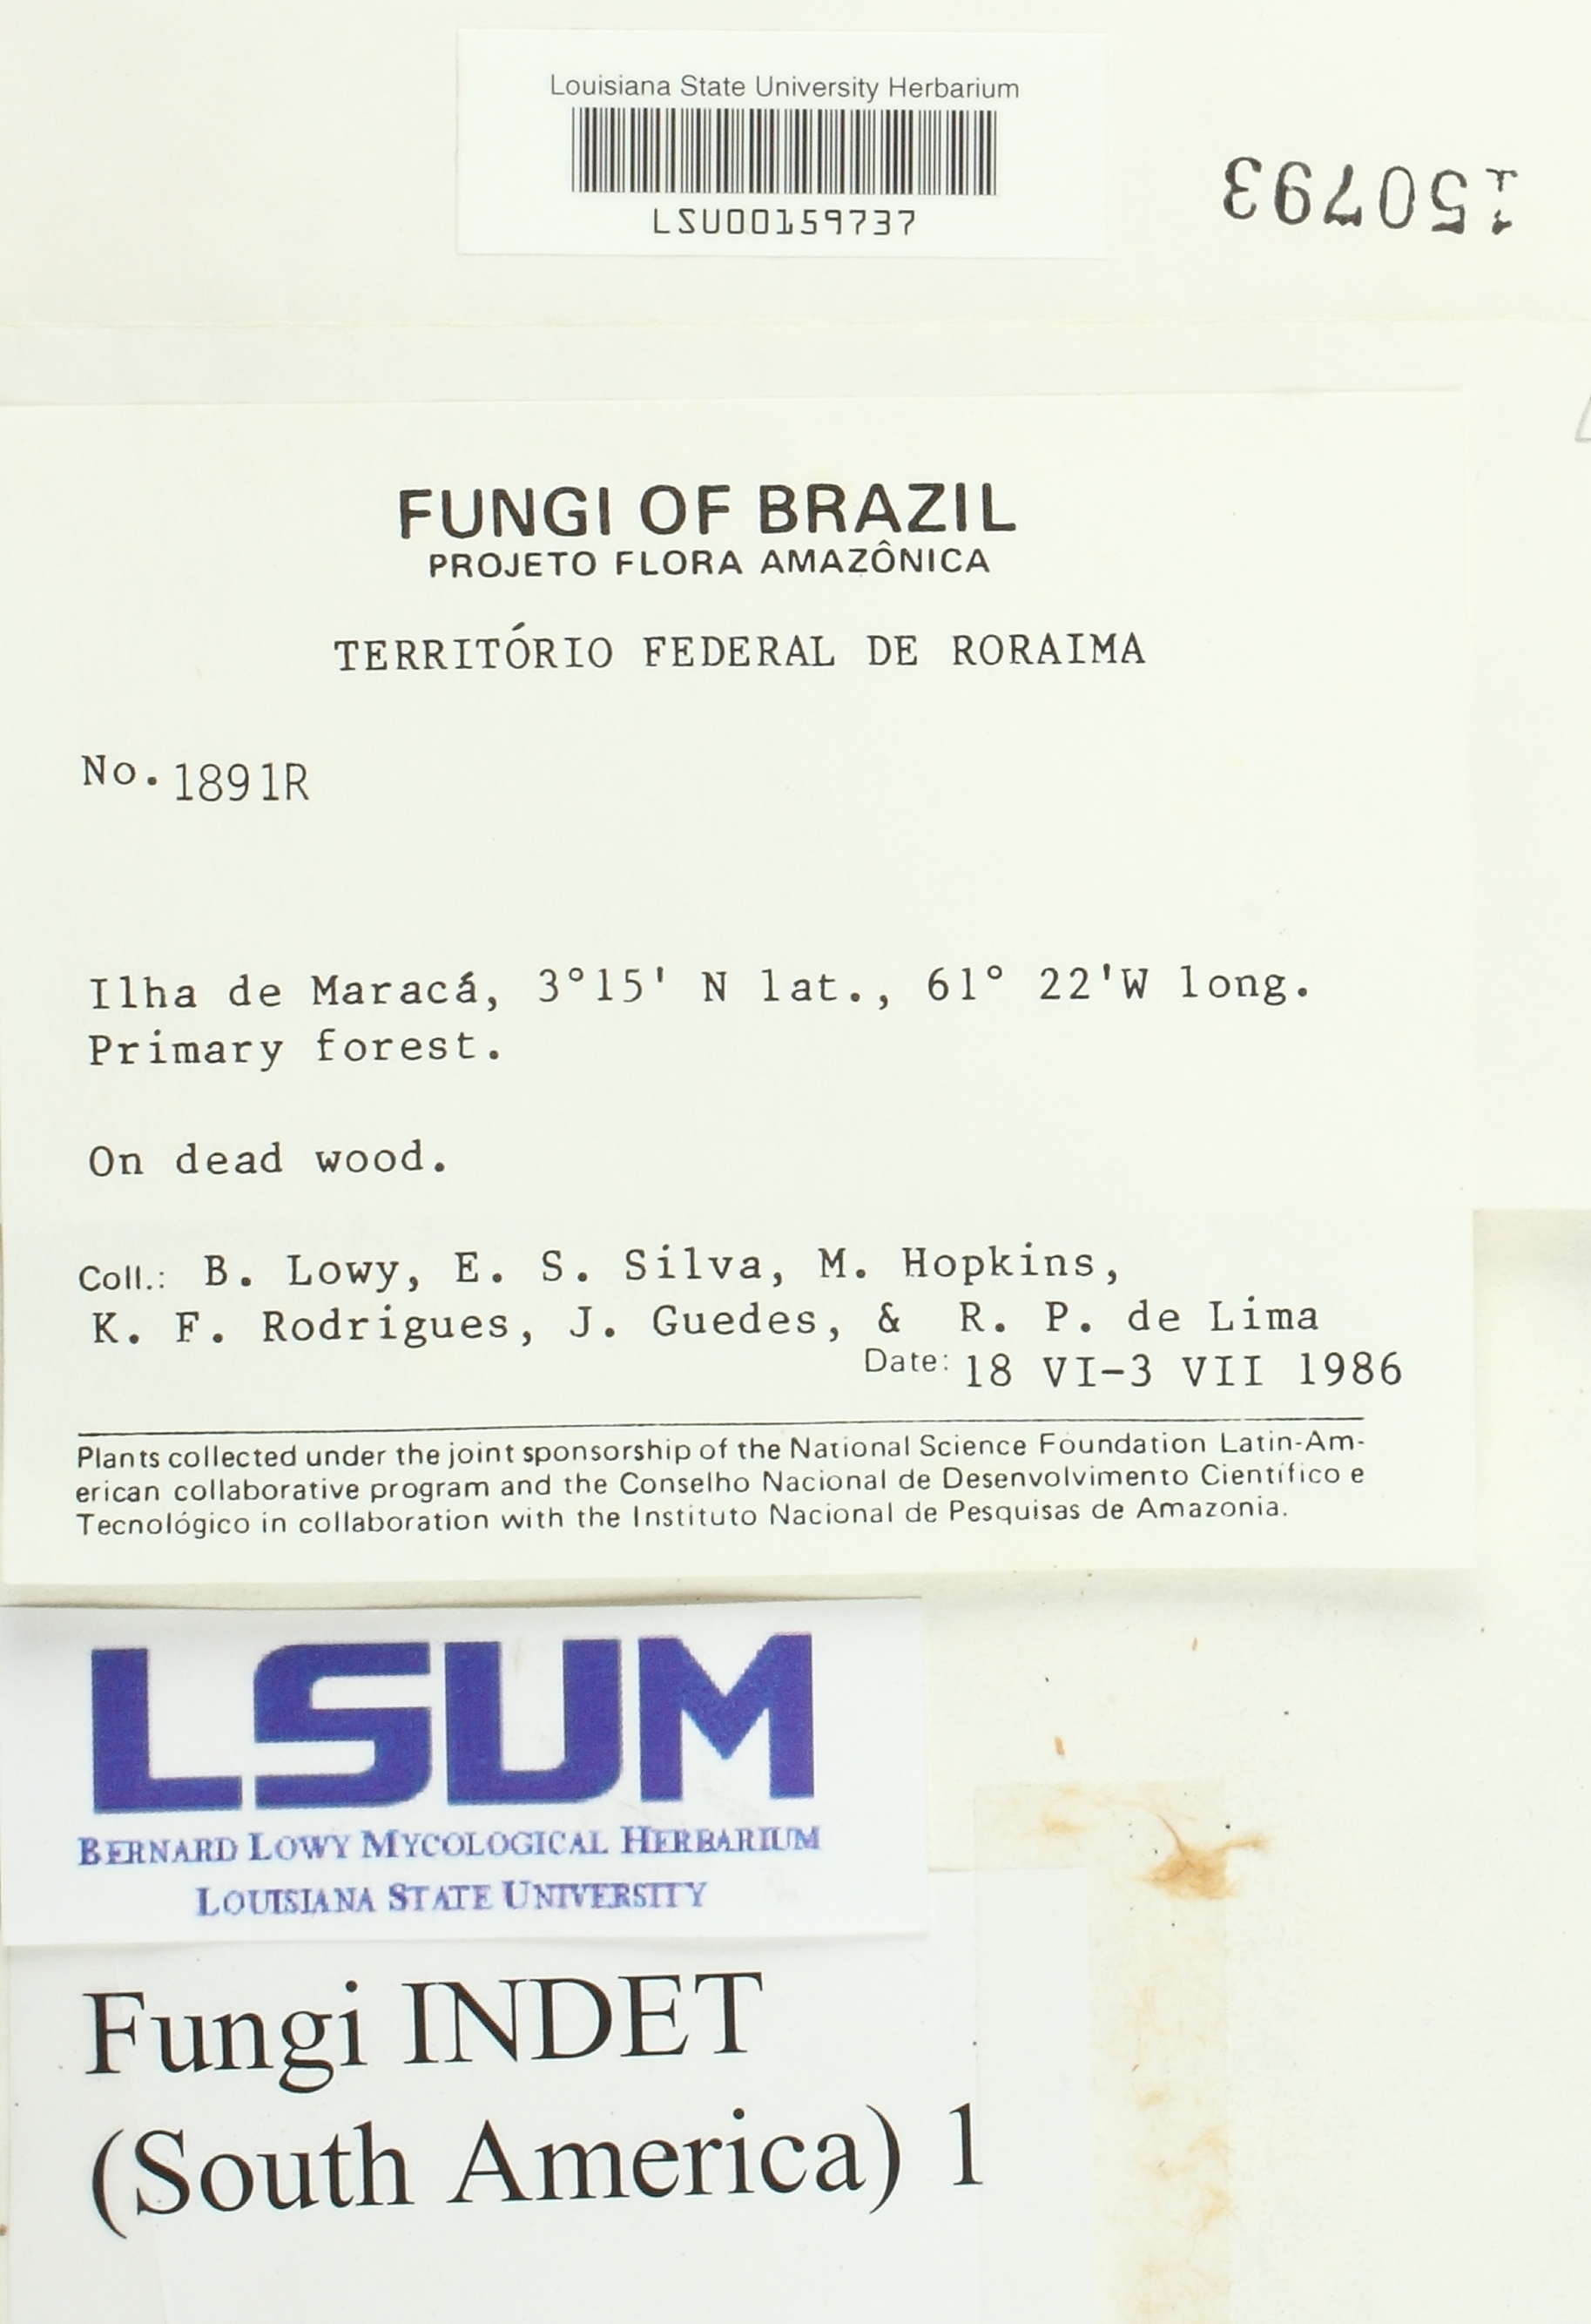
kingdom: Fungi
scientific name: Fungi
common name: Fungi
